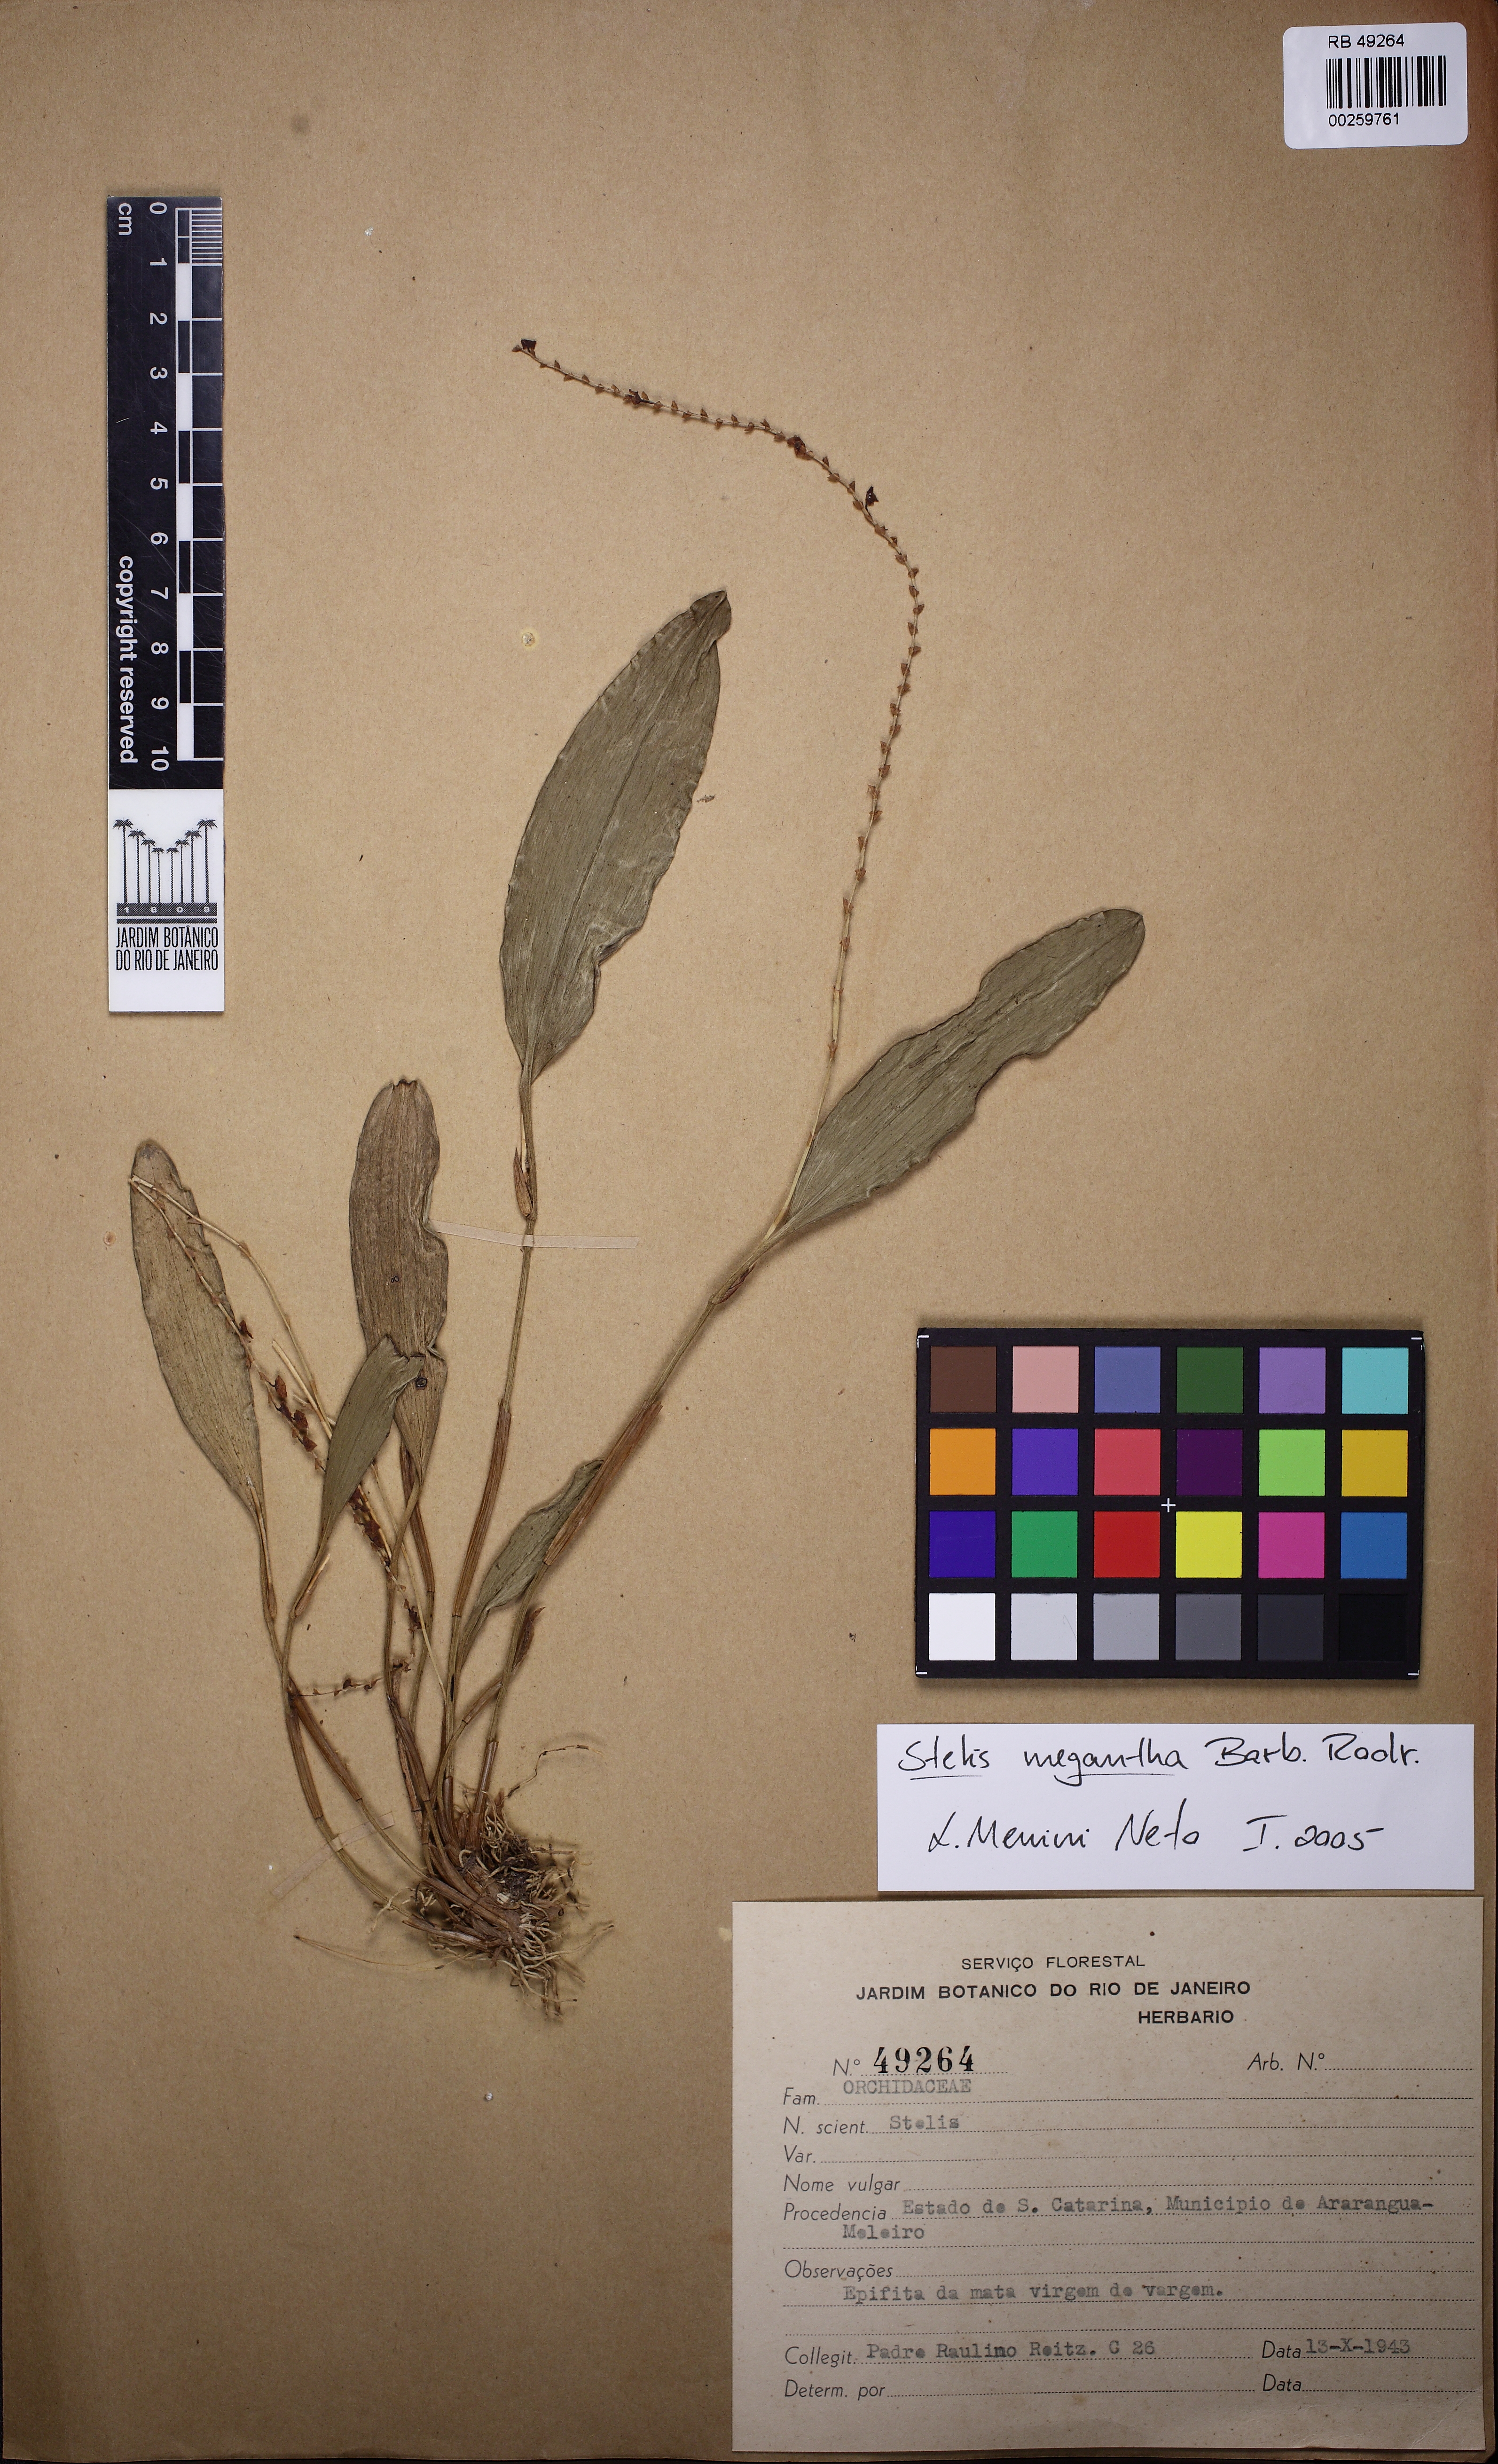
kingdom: Plantae
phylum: Tracheophyta
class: Liliopsida
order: Asparagales
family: Orchidaceae
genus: Stelis
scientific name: Stelis grandiflora
